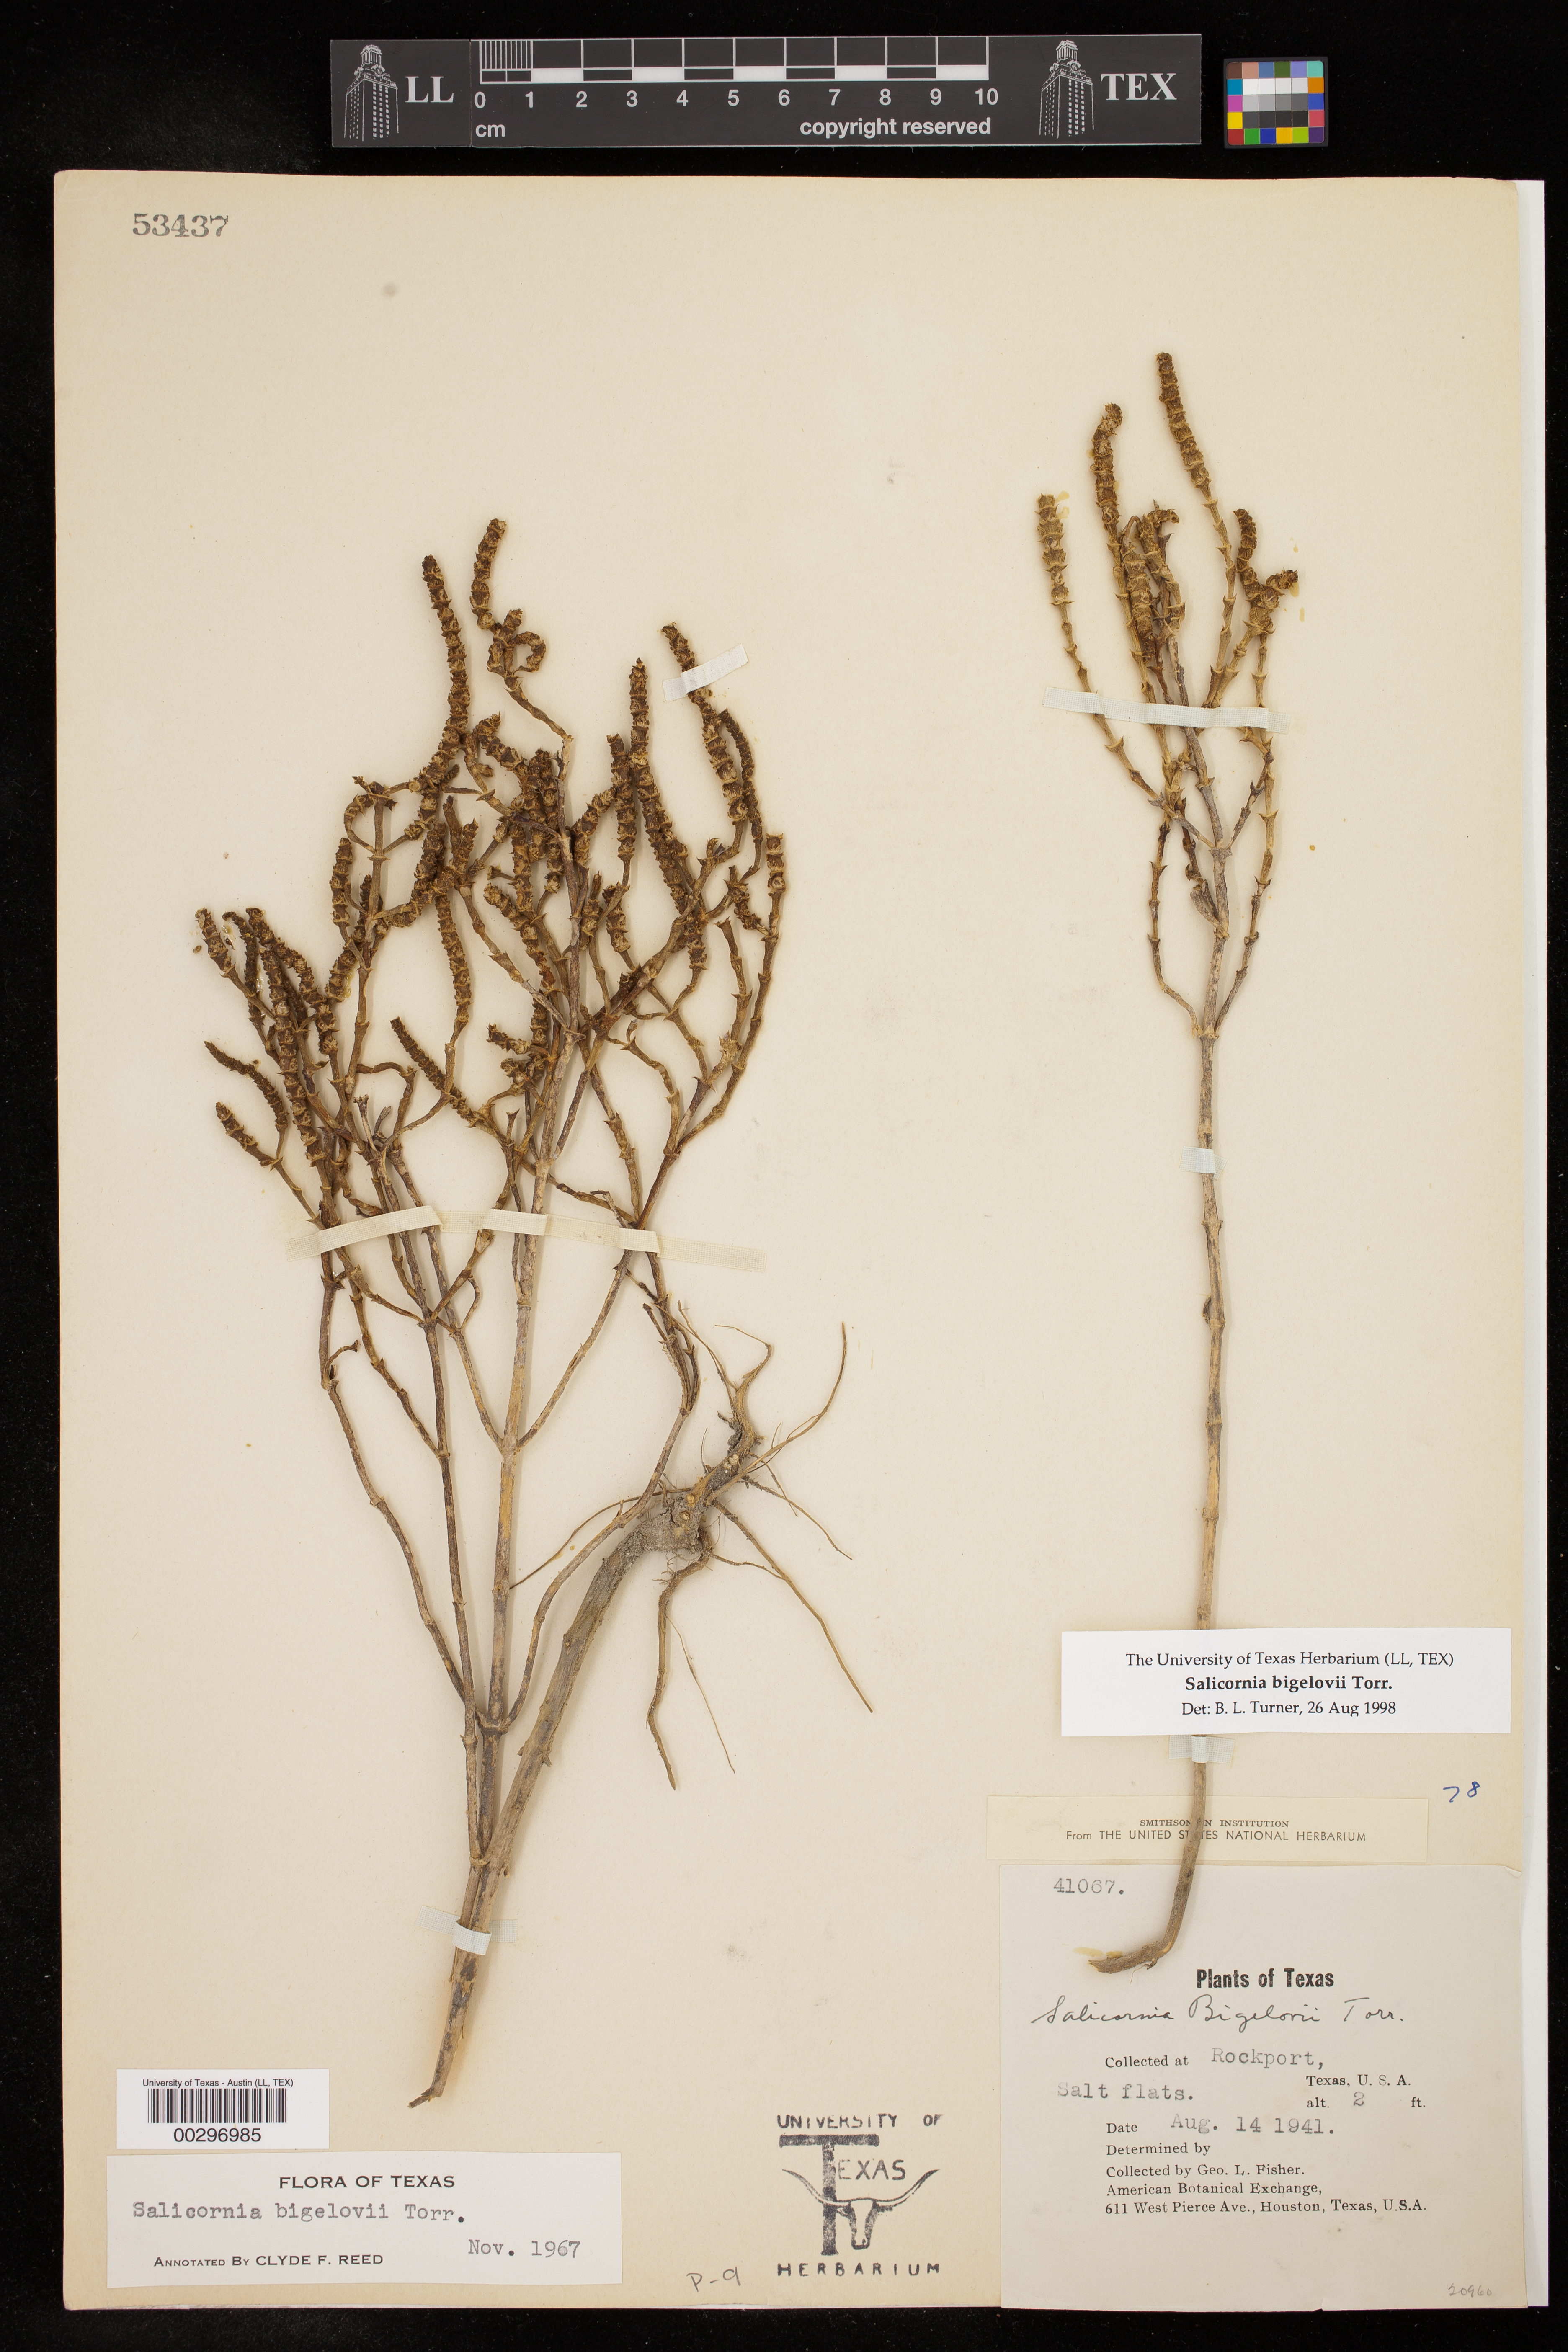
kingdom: Plantae
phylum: Tracheophyta
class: Magnoliopsida
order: Caryophyllales
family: Amaranthaceae
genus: Salicornia
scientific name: Salicornia bigelovii
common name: Dwarf glasswort
